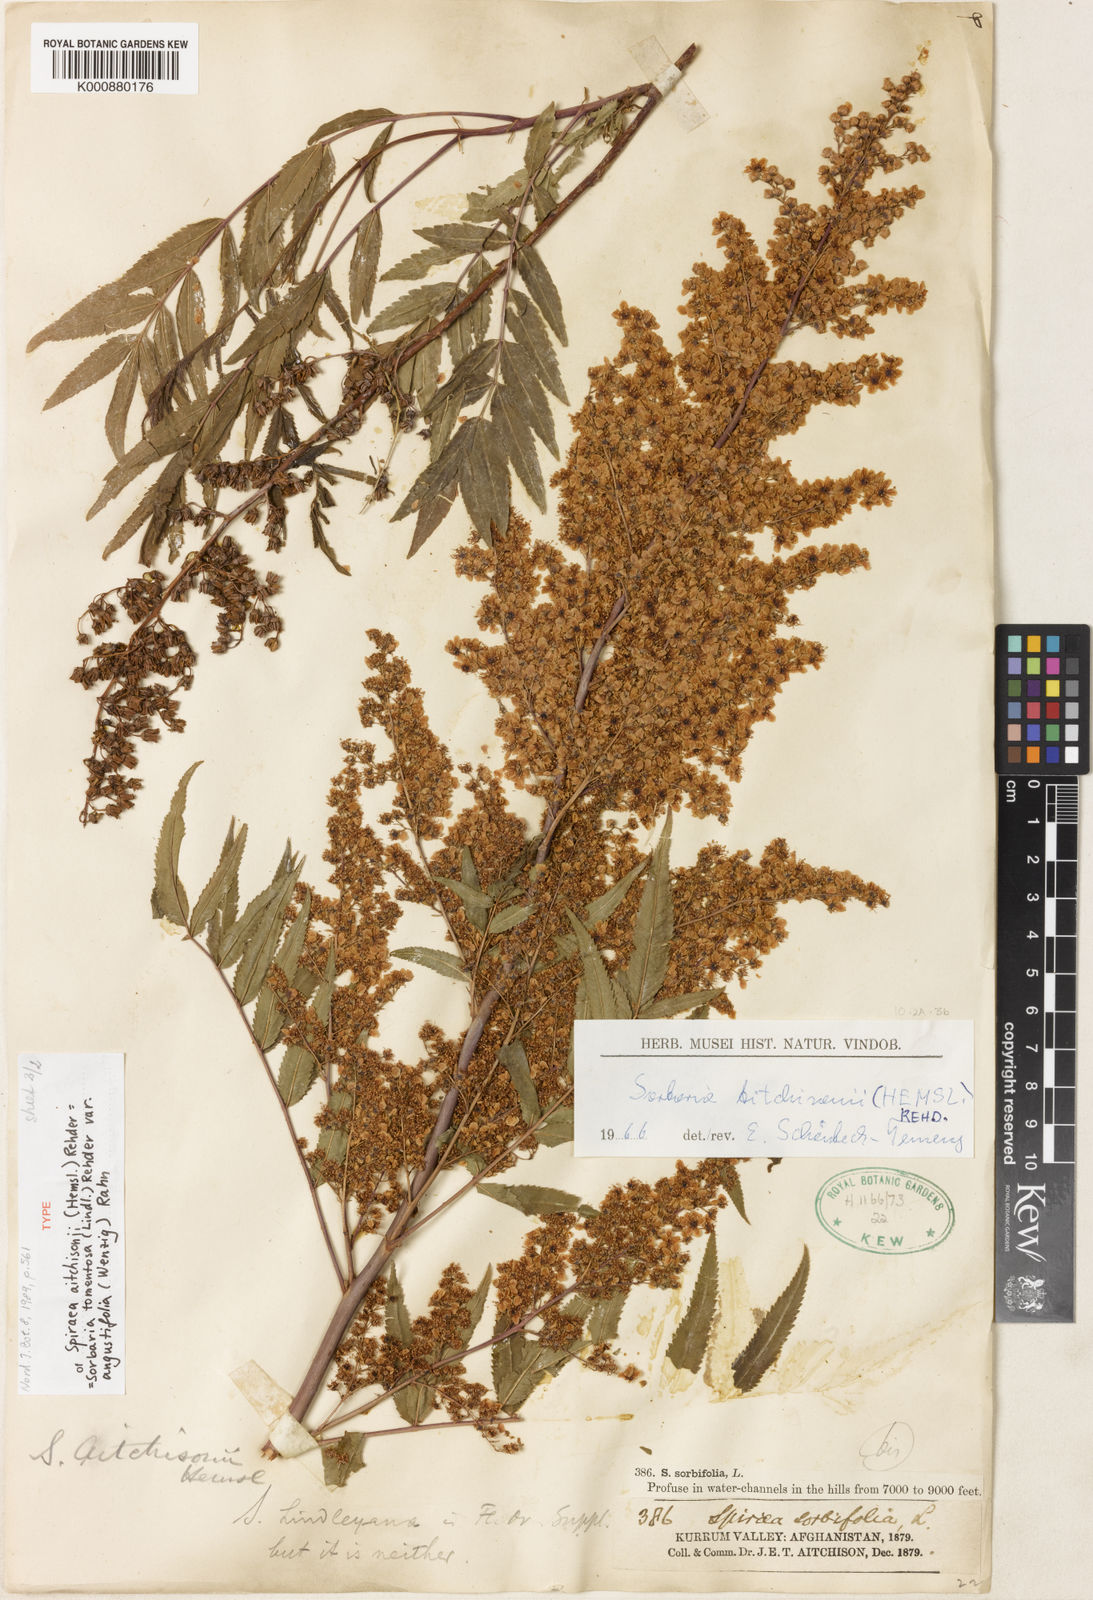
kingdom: Plantae
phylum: Tracheophyta
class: Magnoliopsida
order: Rosales
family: Rosaceae
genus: Sorbaria
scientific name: Sorbaria tomentosa
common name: Himalayan sorbaria
